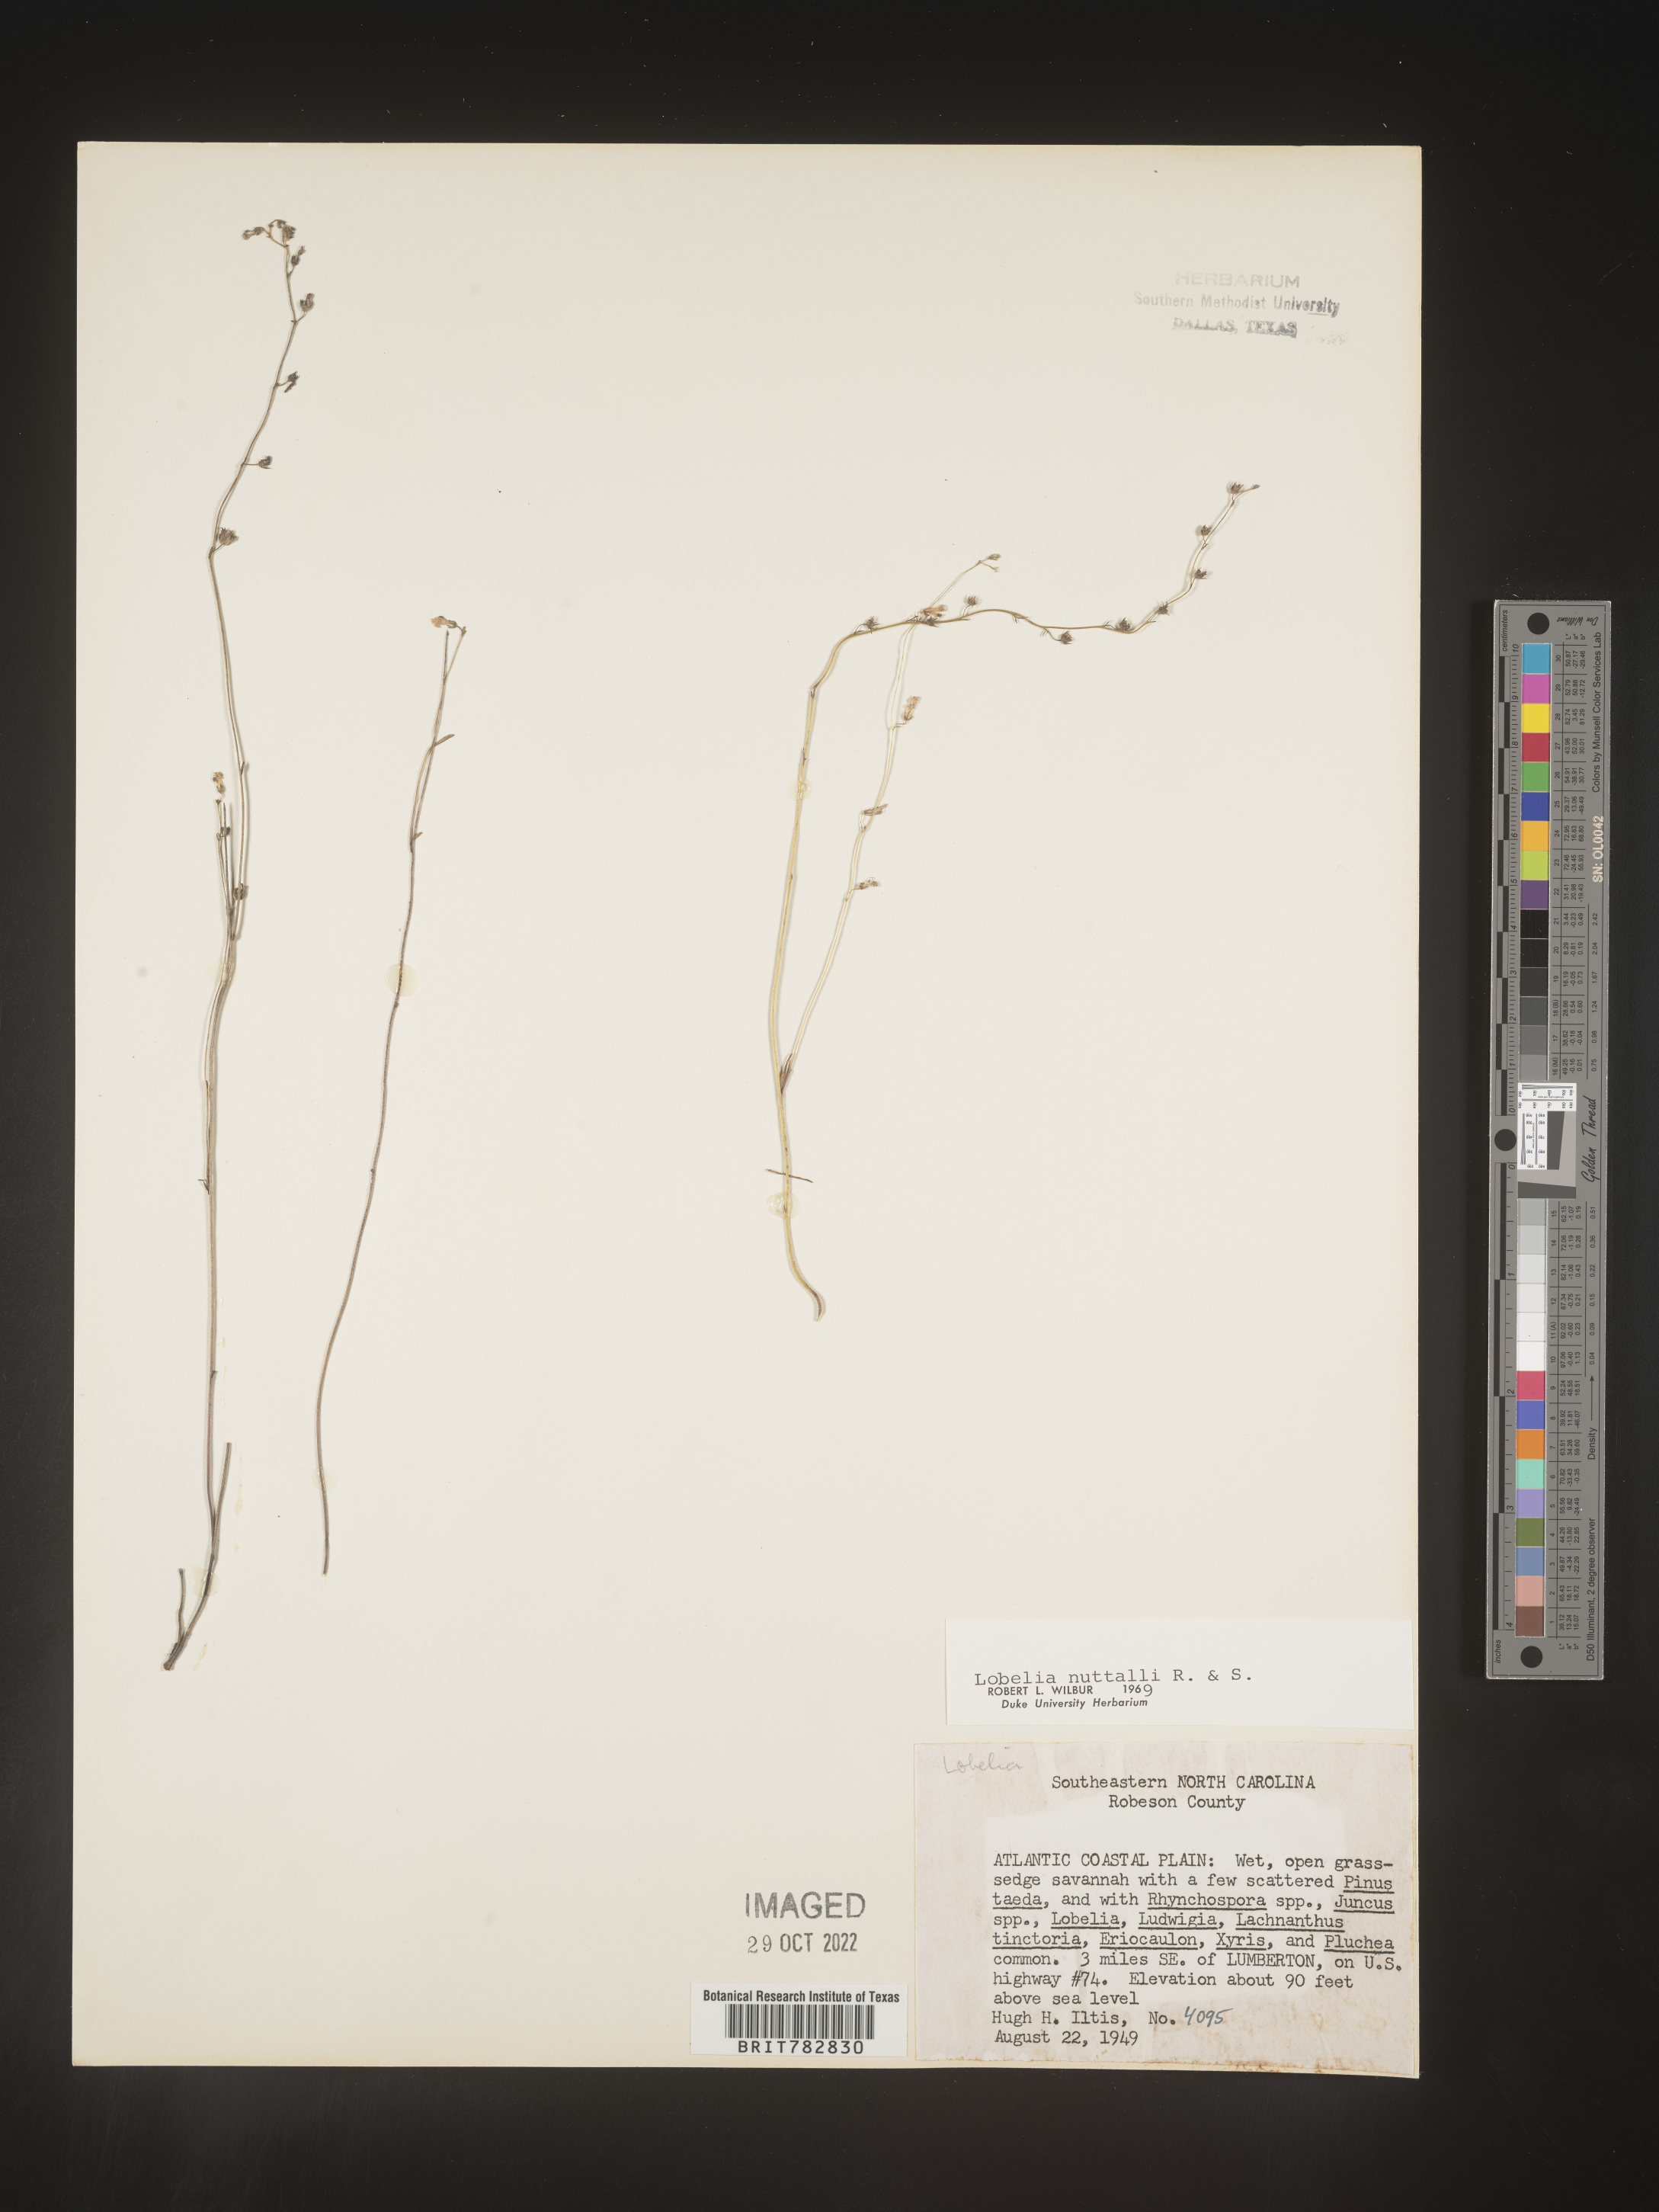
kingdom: Plantae
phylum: Tracheophyta
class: Magnoliopsida
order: Asterales
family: Campanulaceae
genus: Lobelia
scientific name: Lobelia nuttallii
